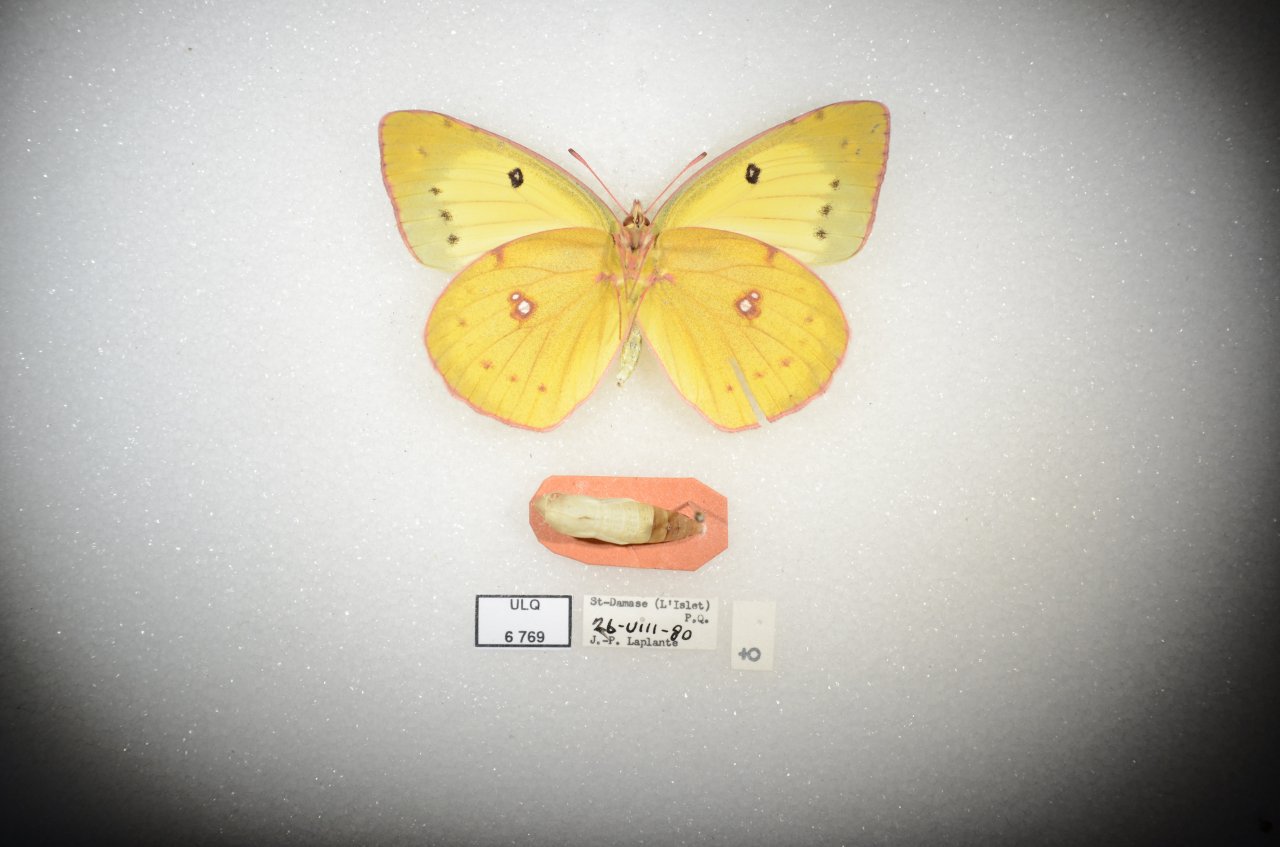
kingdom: Animalia
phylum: Arthropoda
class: Insecta
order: Lepidoptera
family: Pieridae
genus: Colias
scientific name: Colias philodice
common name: Clouded Sulphur
